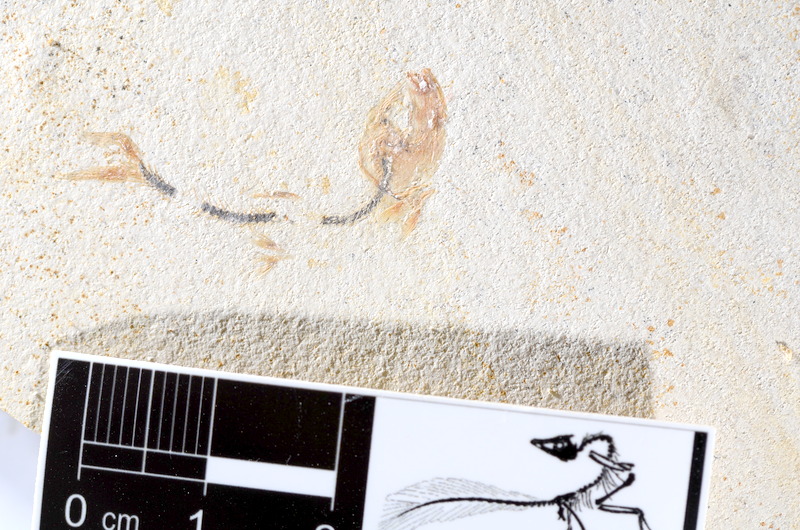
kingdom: Animalia
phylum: Chordata
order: Salmoniformes
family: Orthogonikleithridae
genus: Orthogonikleithrus
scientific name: Orthogonikleithrus hoelli
